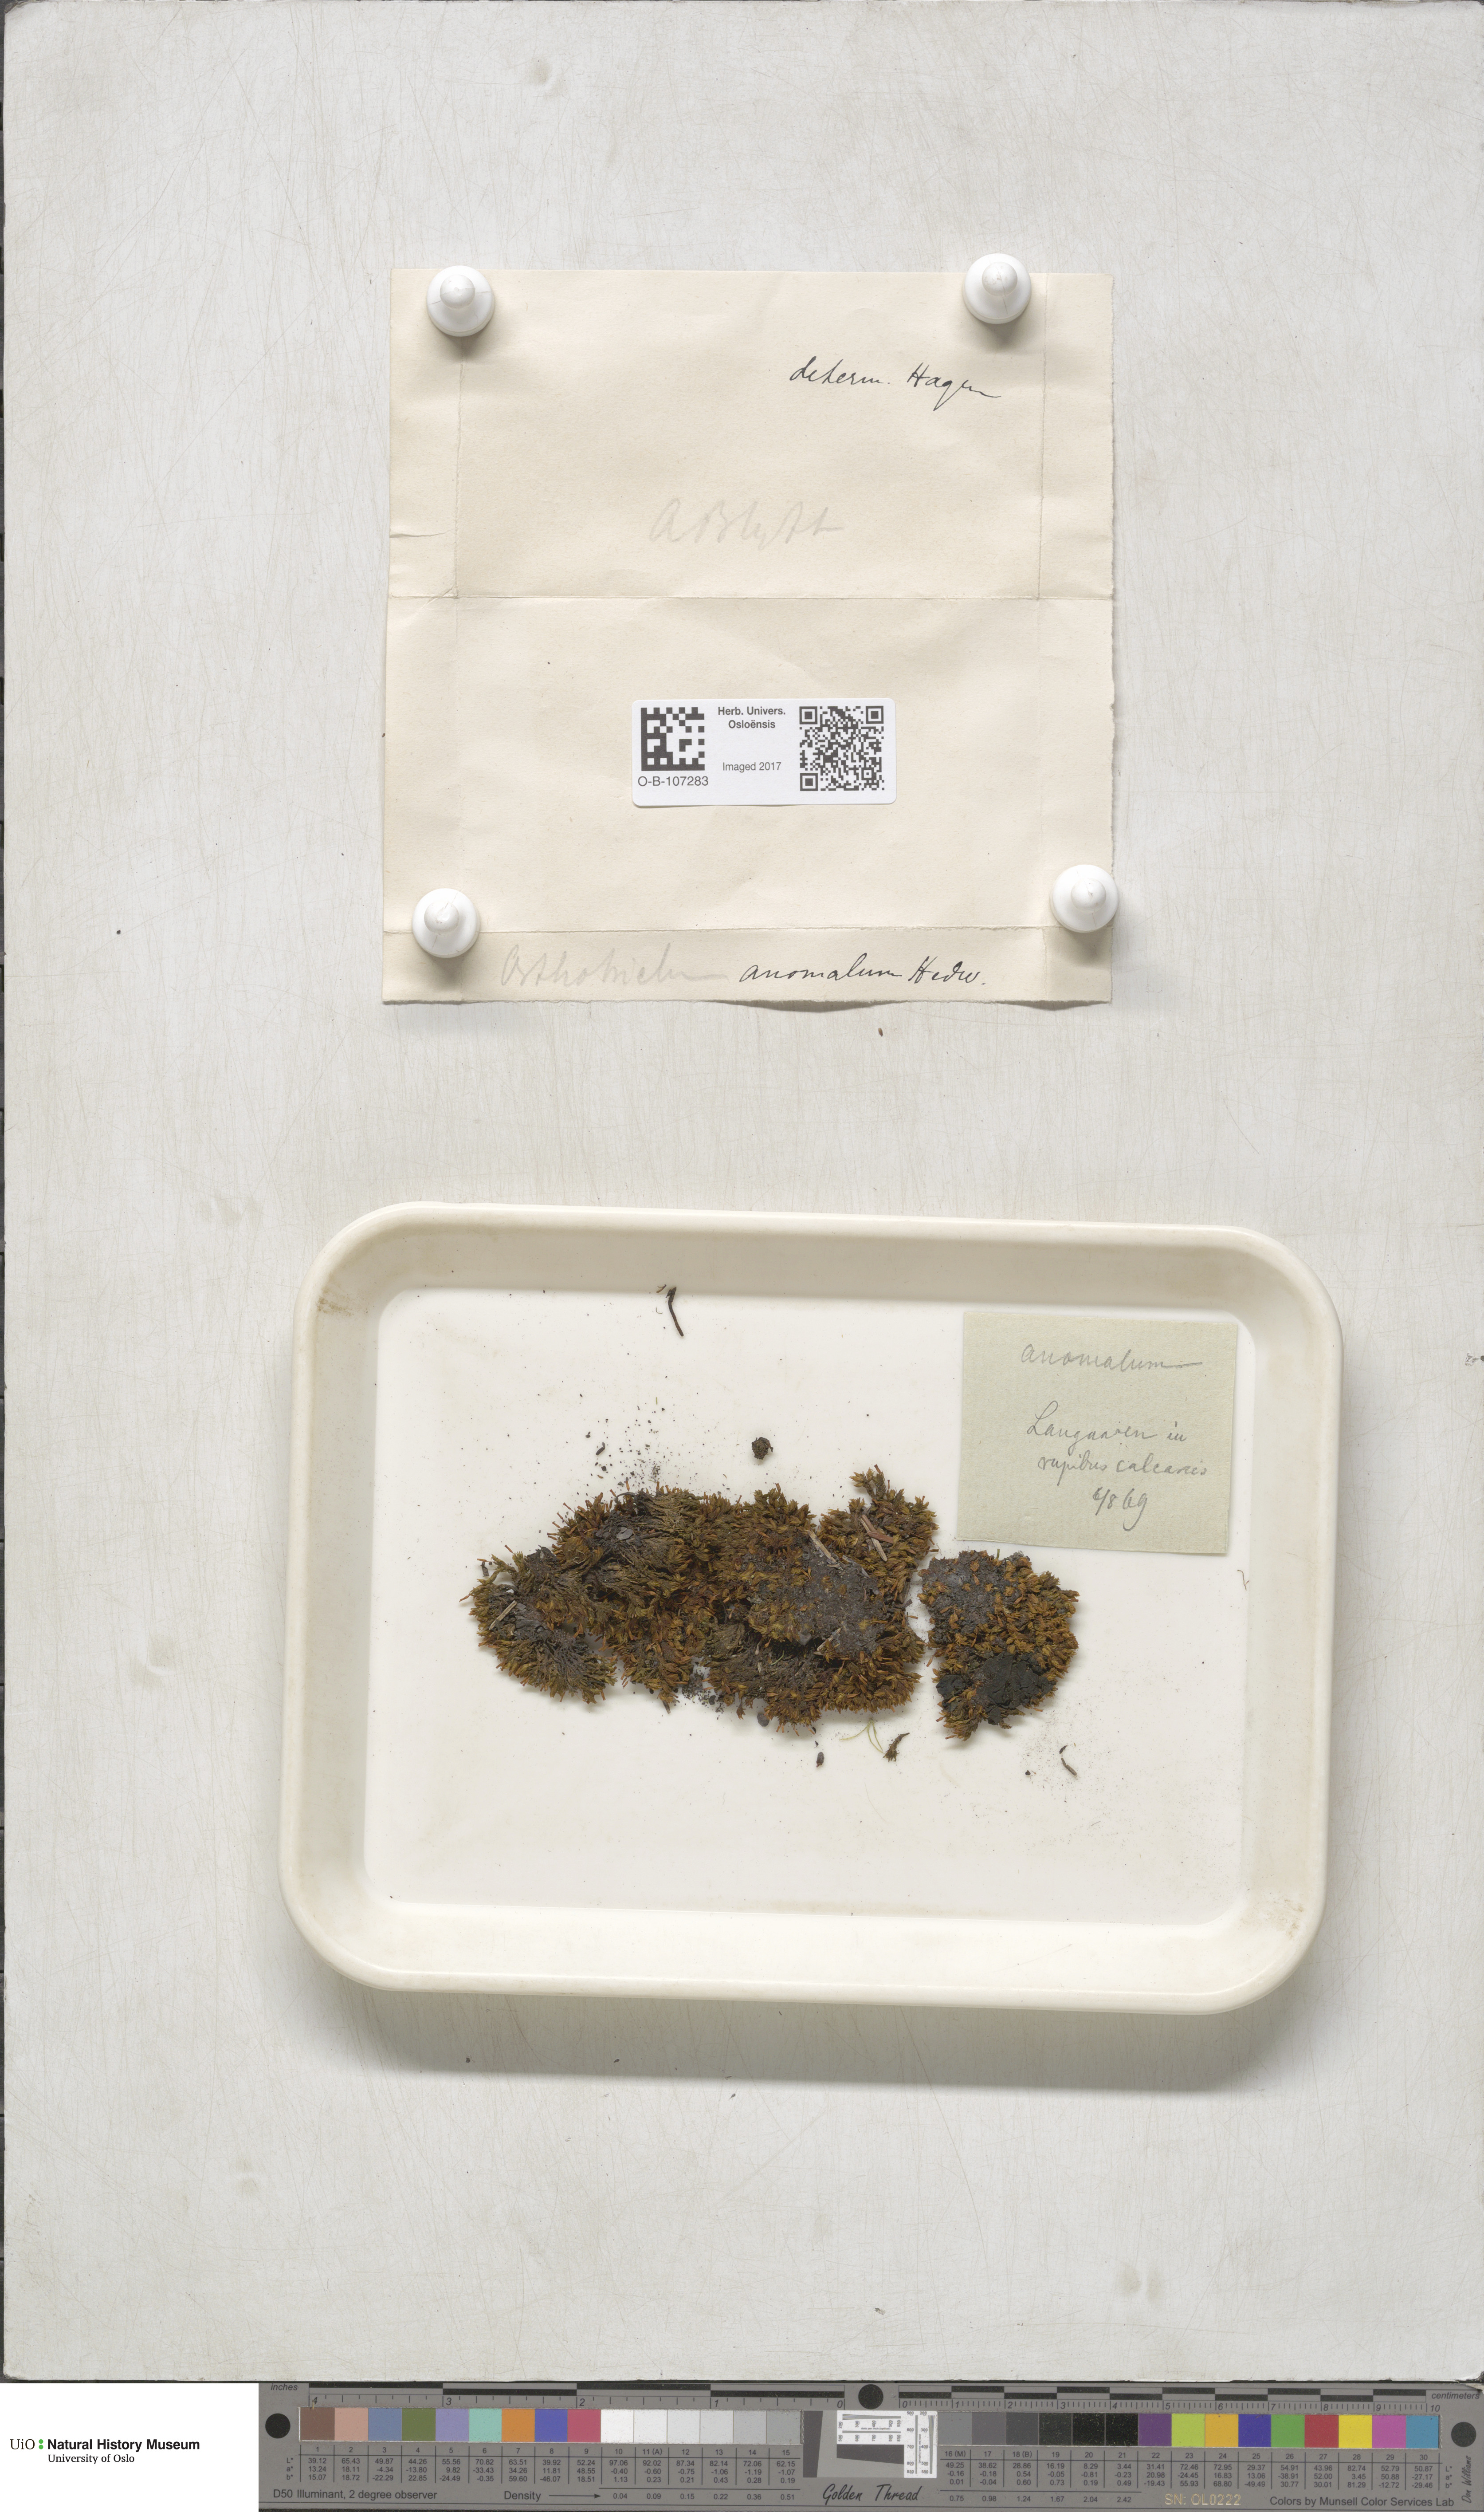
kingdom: Plantae
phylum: Bryophyta
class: Bryopsida
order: Orthotrichales
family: Orthotrichaceae
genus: Orthotrichum
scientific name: Orthotrichum anomalum
